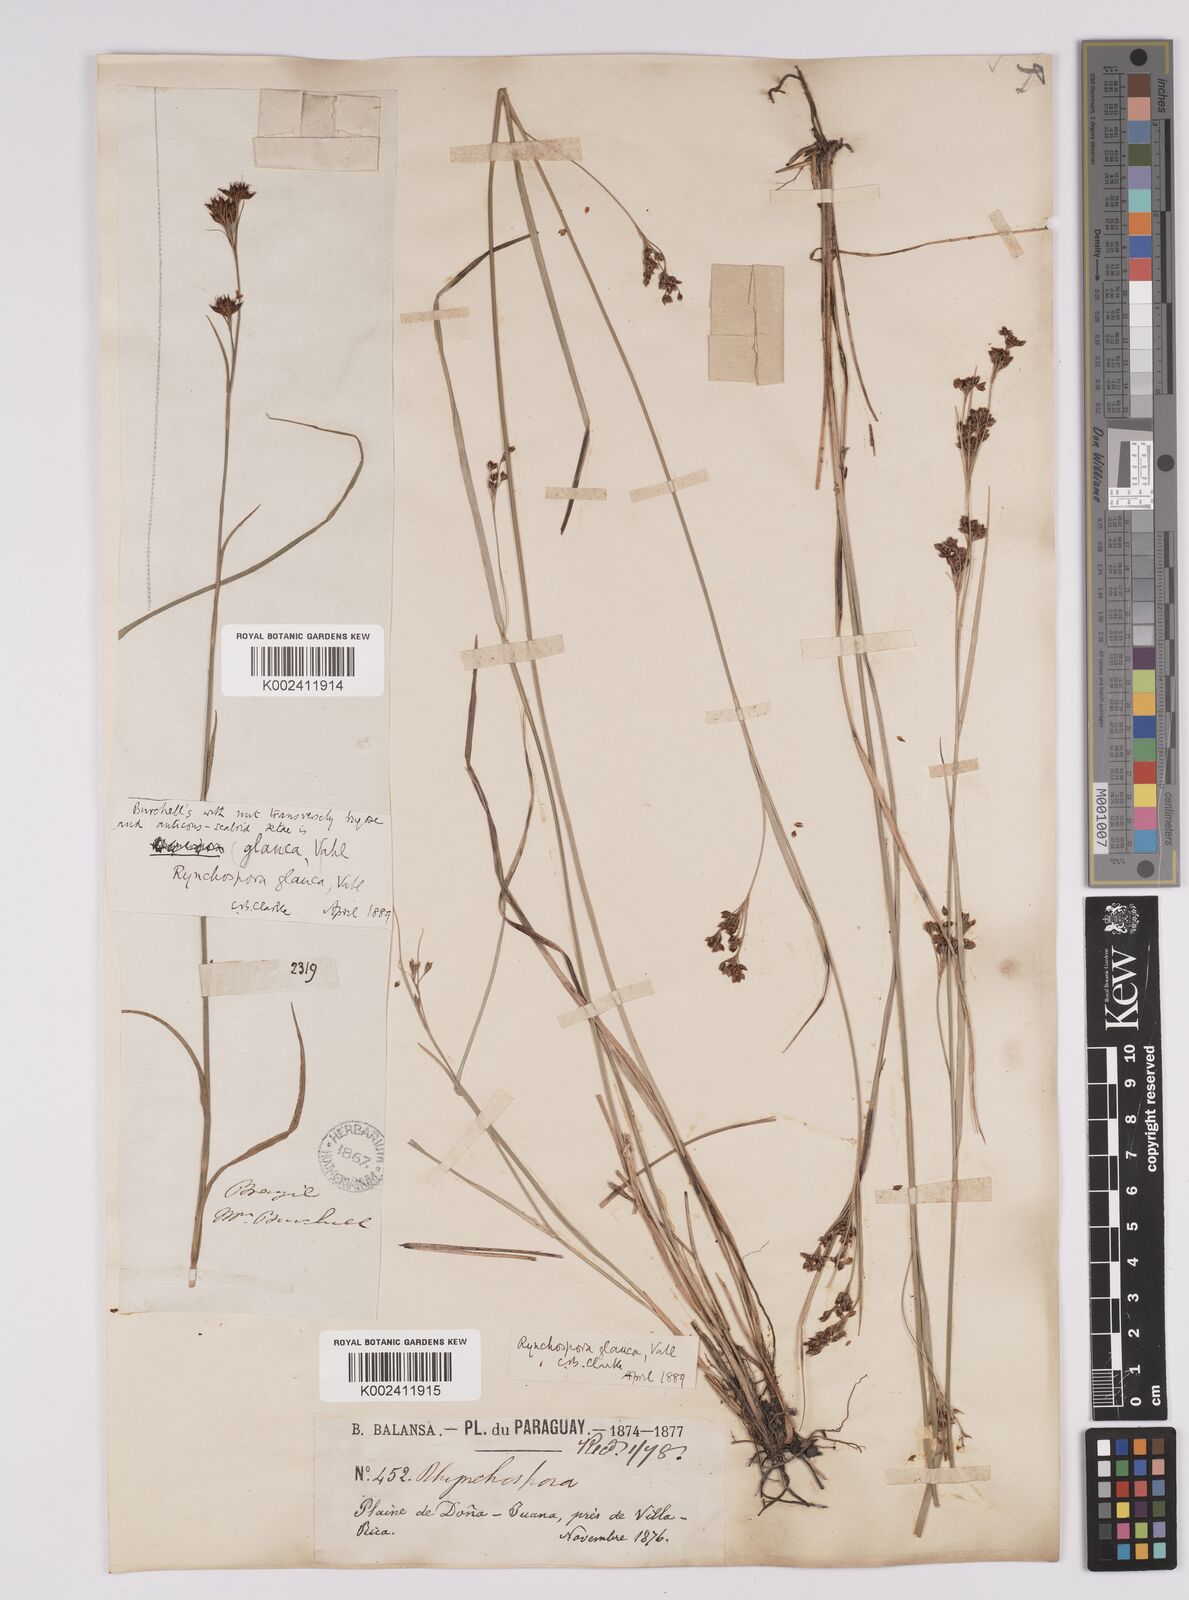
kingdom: Plantae
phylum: Tracheophyta
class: Liliopsida
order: Poales
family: Cyperaceae
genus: Rhynchospora
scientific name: Rhynchospora rugosa
